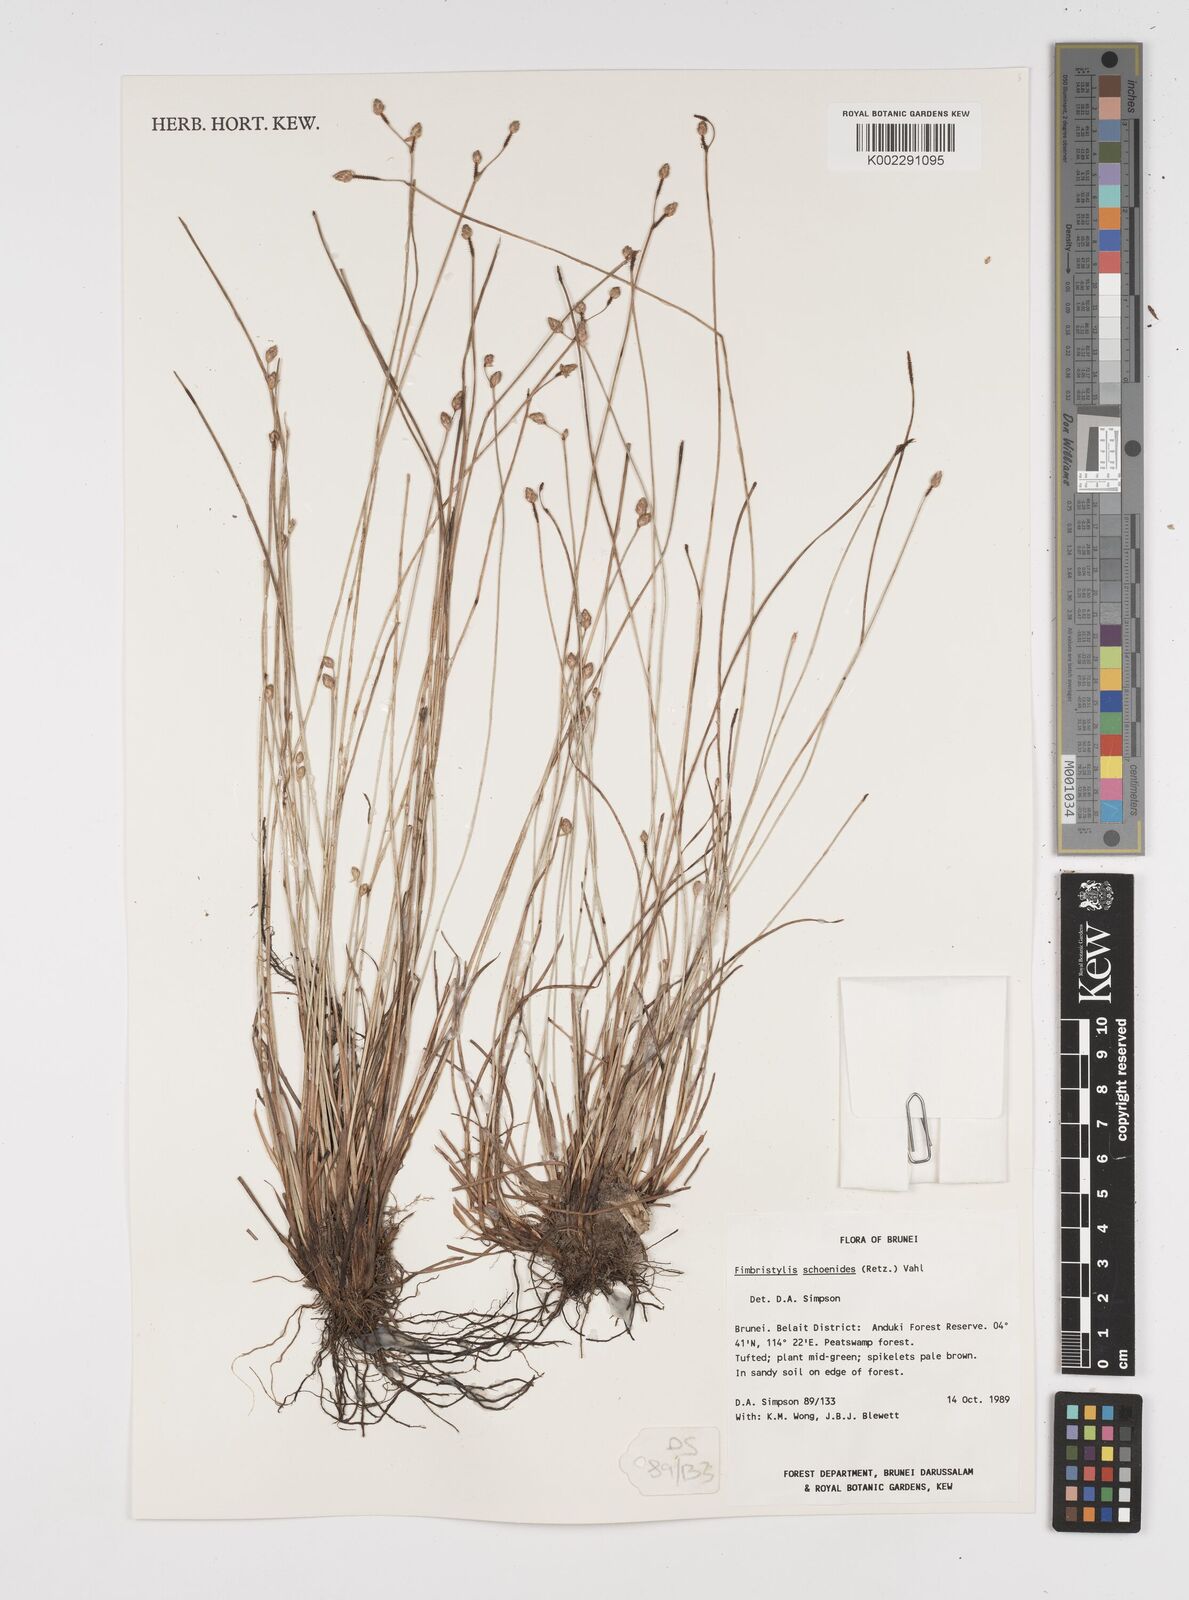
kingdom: Plantae
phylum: Tracheophyta
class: Liliopsida
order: Poales
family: Cyperaceae
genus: Fimbristylis
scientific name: Fimbristylis schoenoides
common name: Ditch fimbry
